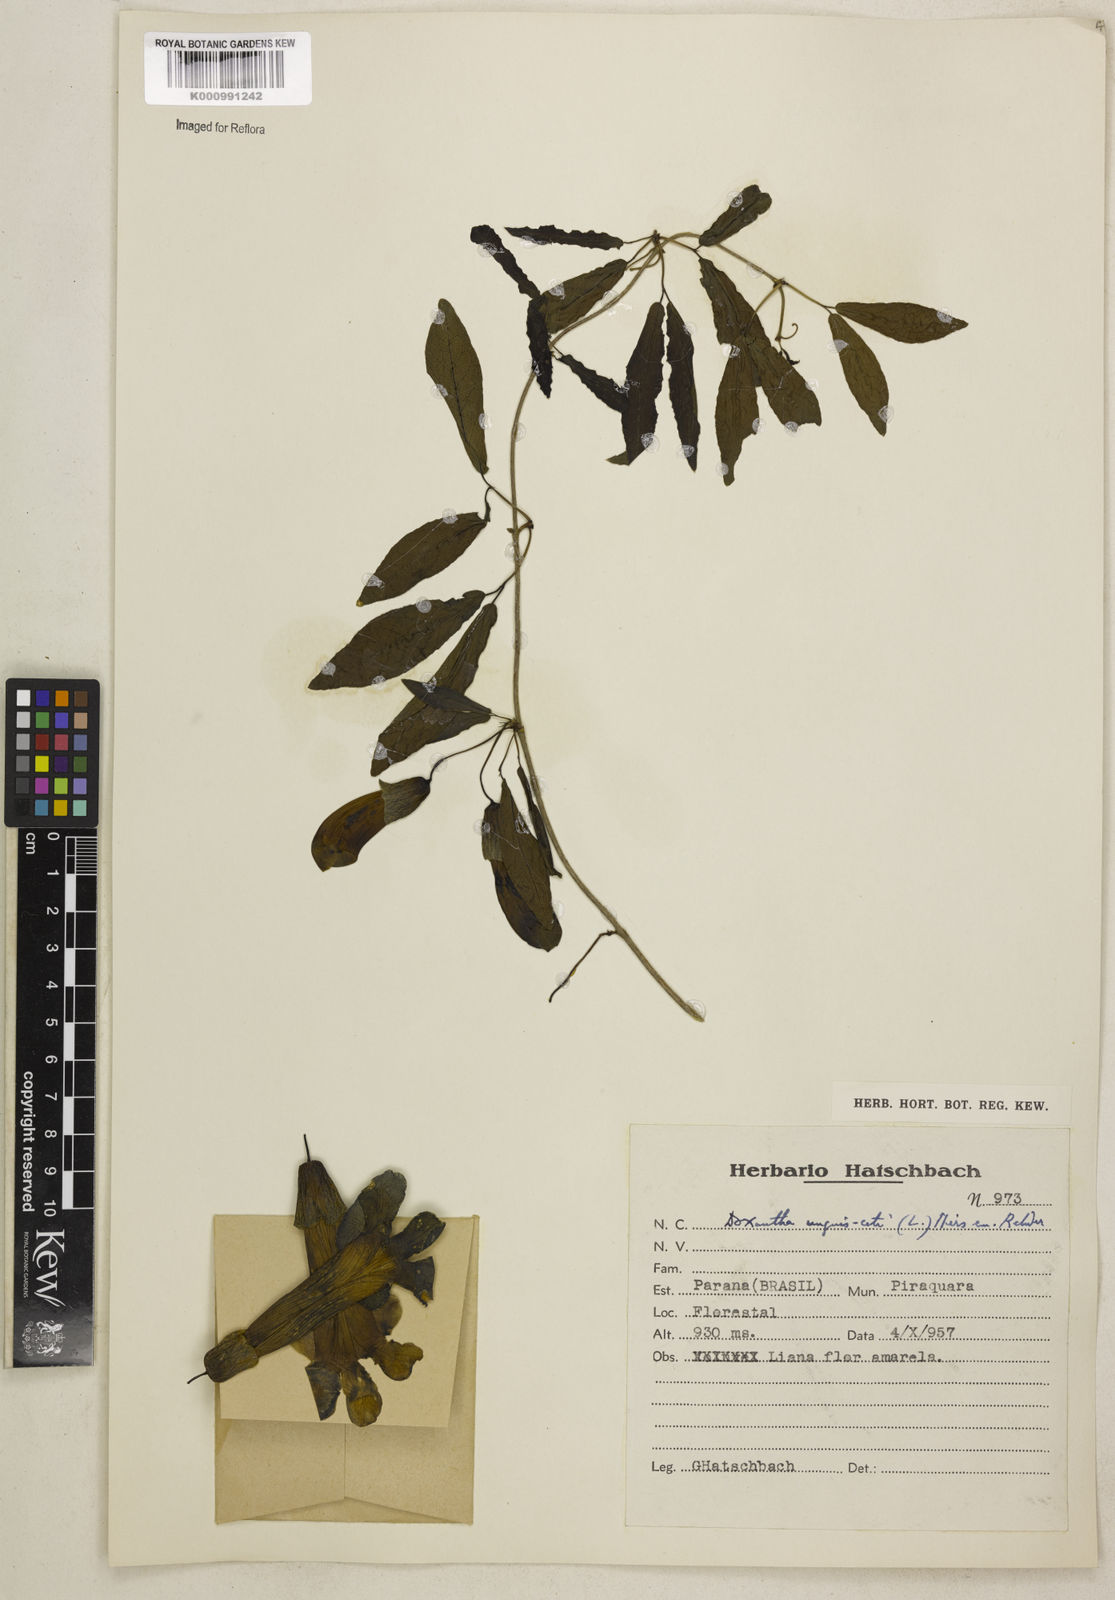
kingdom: Plantae
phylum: Tracheophyta
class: Magnoliopsida
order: Lamiales
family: Bignoniaceae
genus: Dolichandra
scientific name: Dolichandra unguis-cati
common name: Catclaw vine
